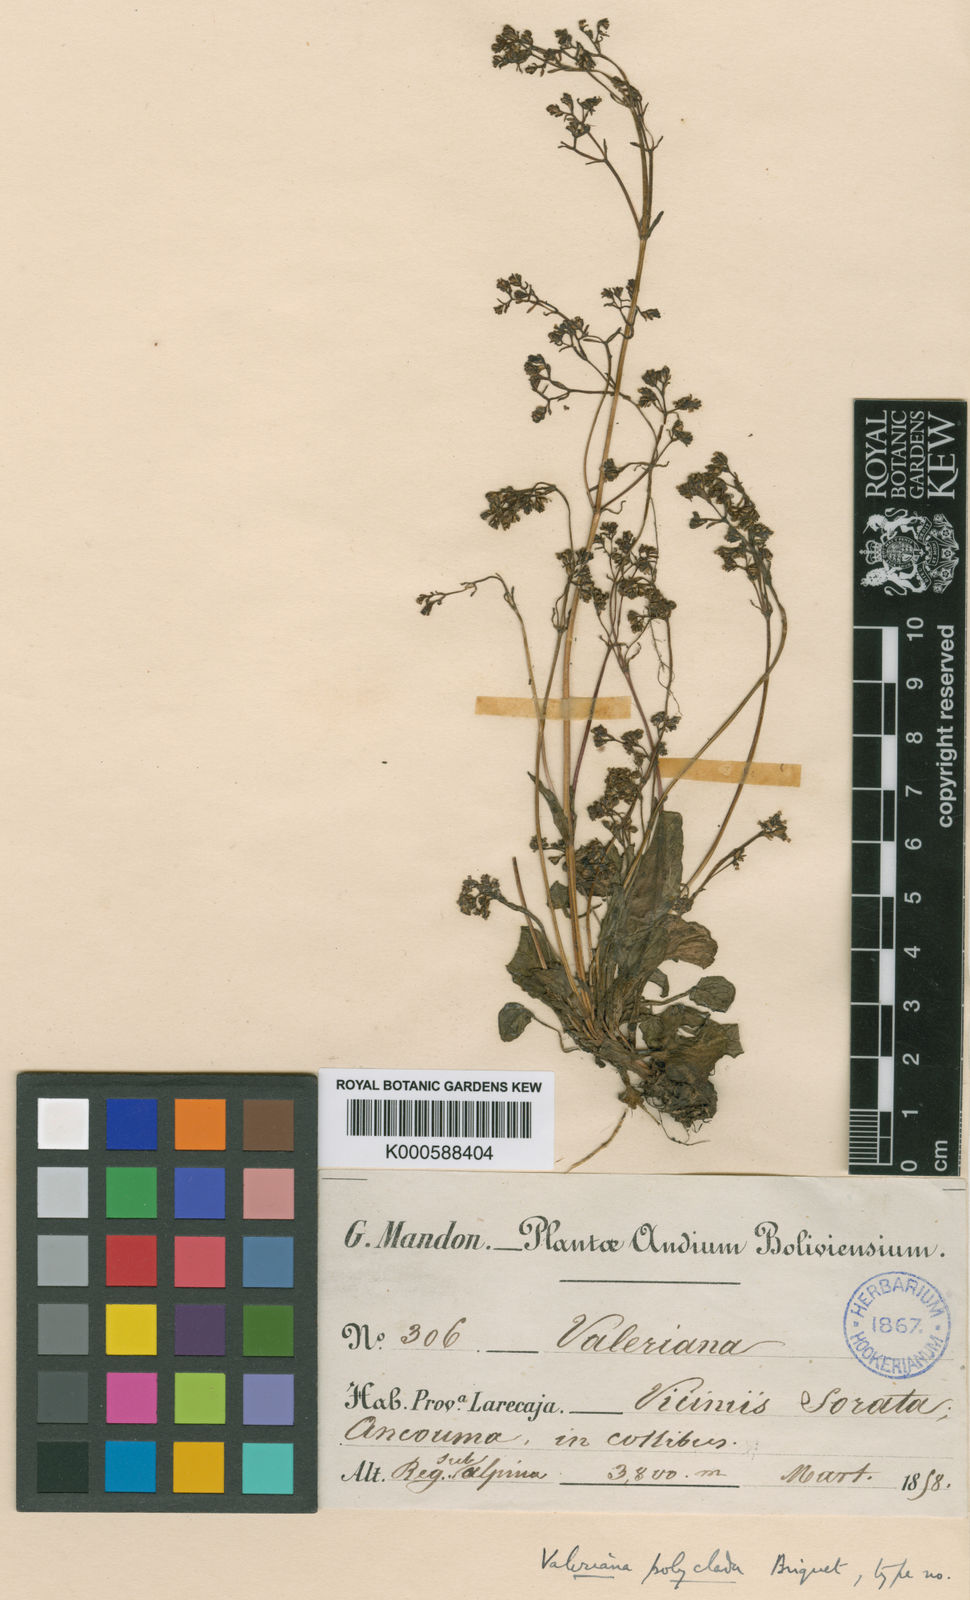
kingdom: Plantae
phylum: Tracheophyta
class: Magnoliopsida
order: Dipsacales
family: Caprifoliaceae
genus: Valeriana
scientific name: Valeriana polyclada
